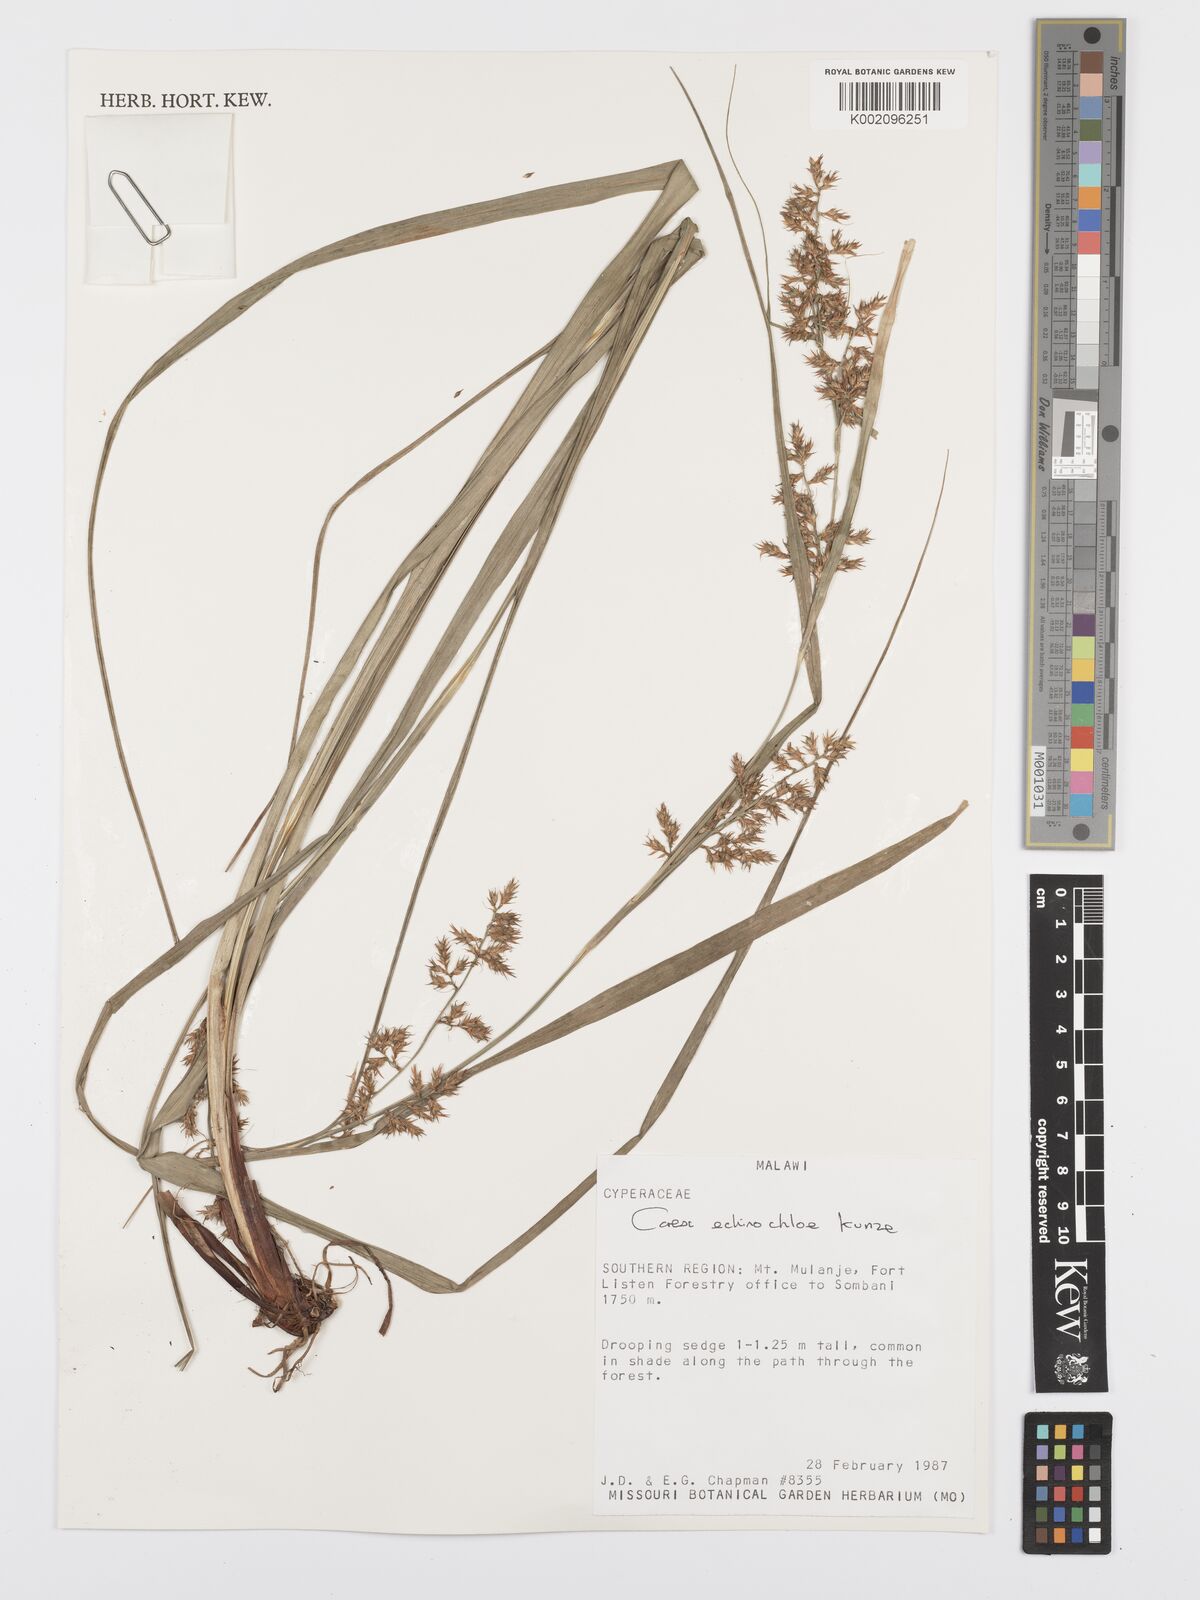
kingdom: Plantae
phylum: Tracheophyta
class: Liliopsida
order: Poales
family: Cyperaceae
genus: Carex
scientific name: Carex echinochloe
